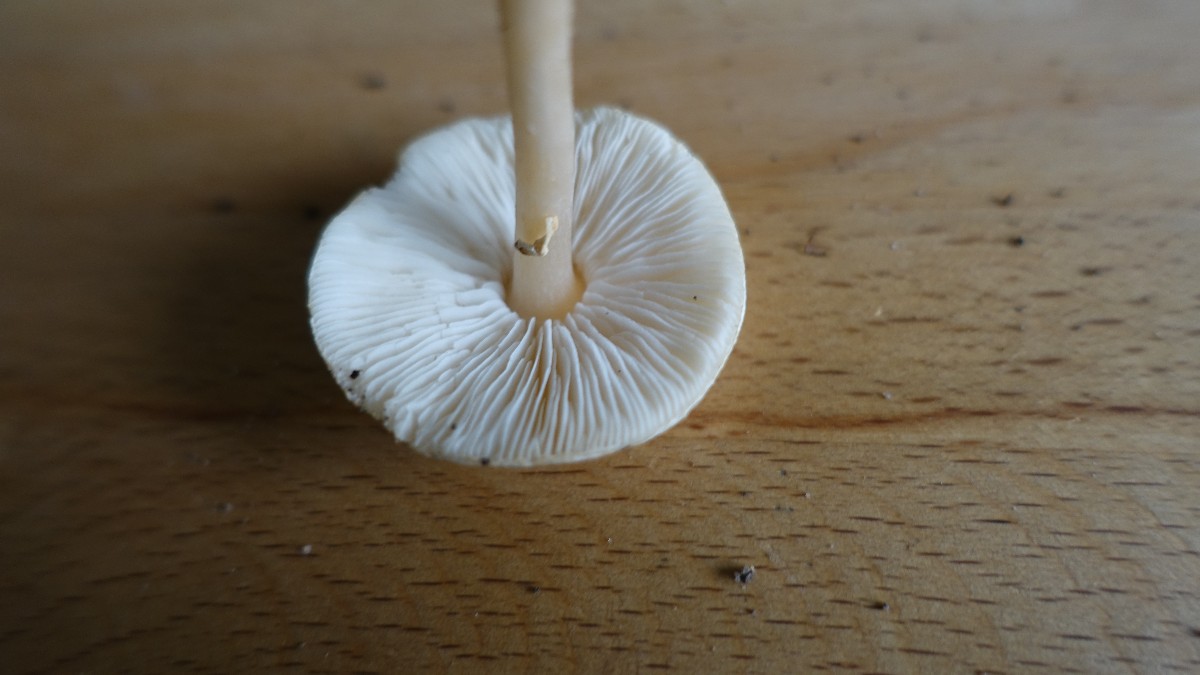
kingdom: Fungi
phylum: Basidiomycota
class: Agaricomycetes
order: Agaricales
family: Agaricaceae
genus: Lepiota
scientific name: Lepiota cristata
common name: stinkende parasolhat
